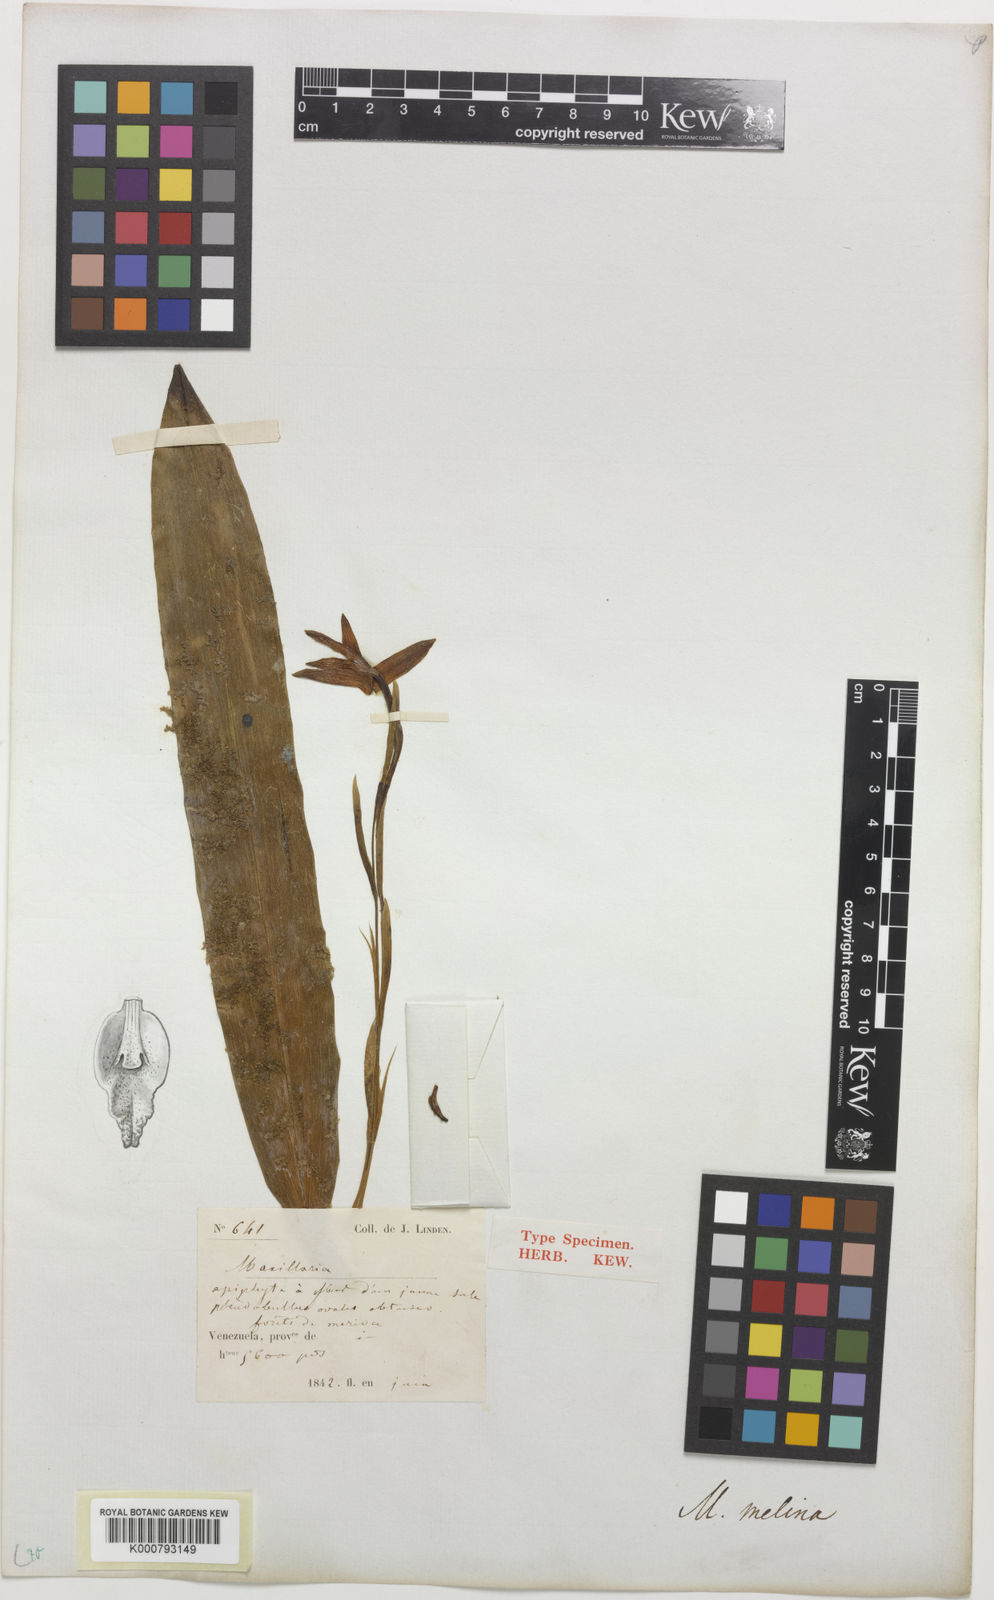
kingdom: Plantae
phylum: Tracheophyta
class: Liliopsida
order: Asparagales
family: Orchidaceae
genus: Maxillaria
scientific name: Maxillaria melina
